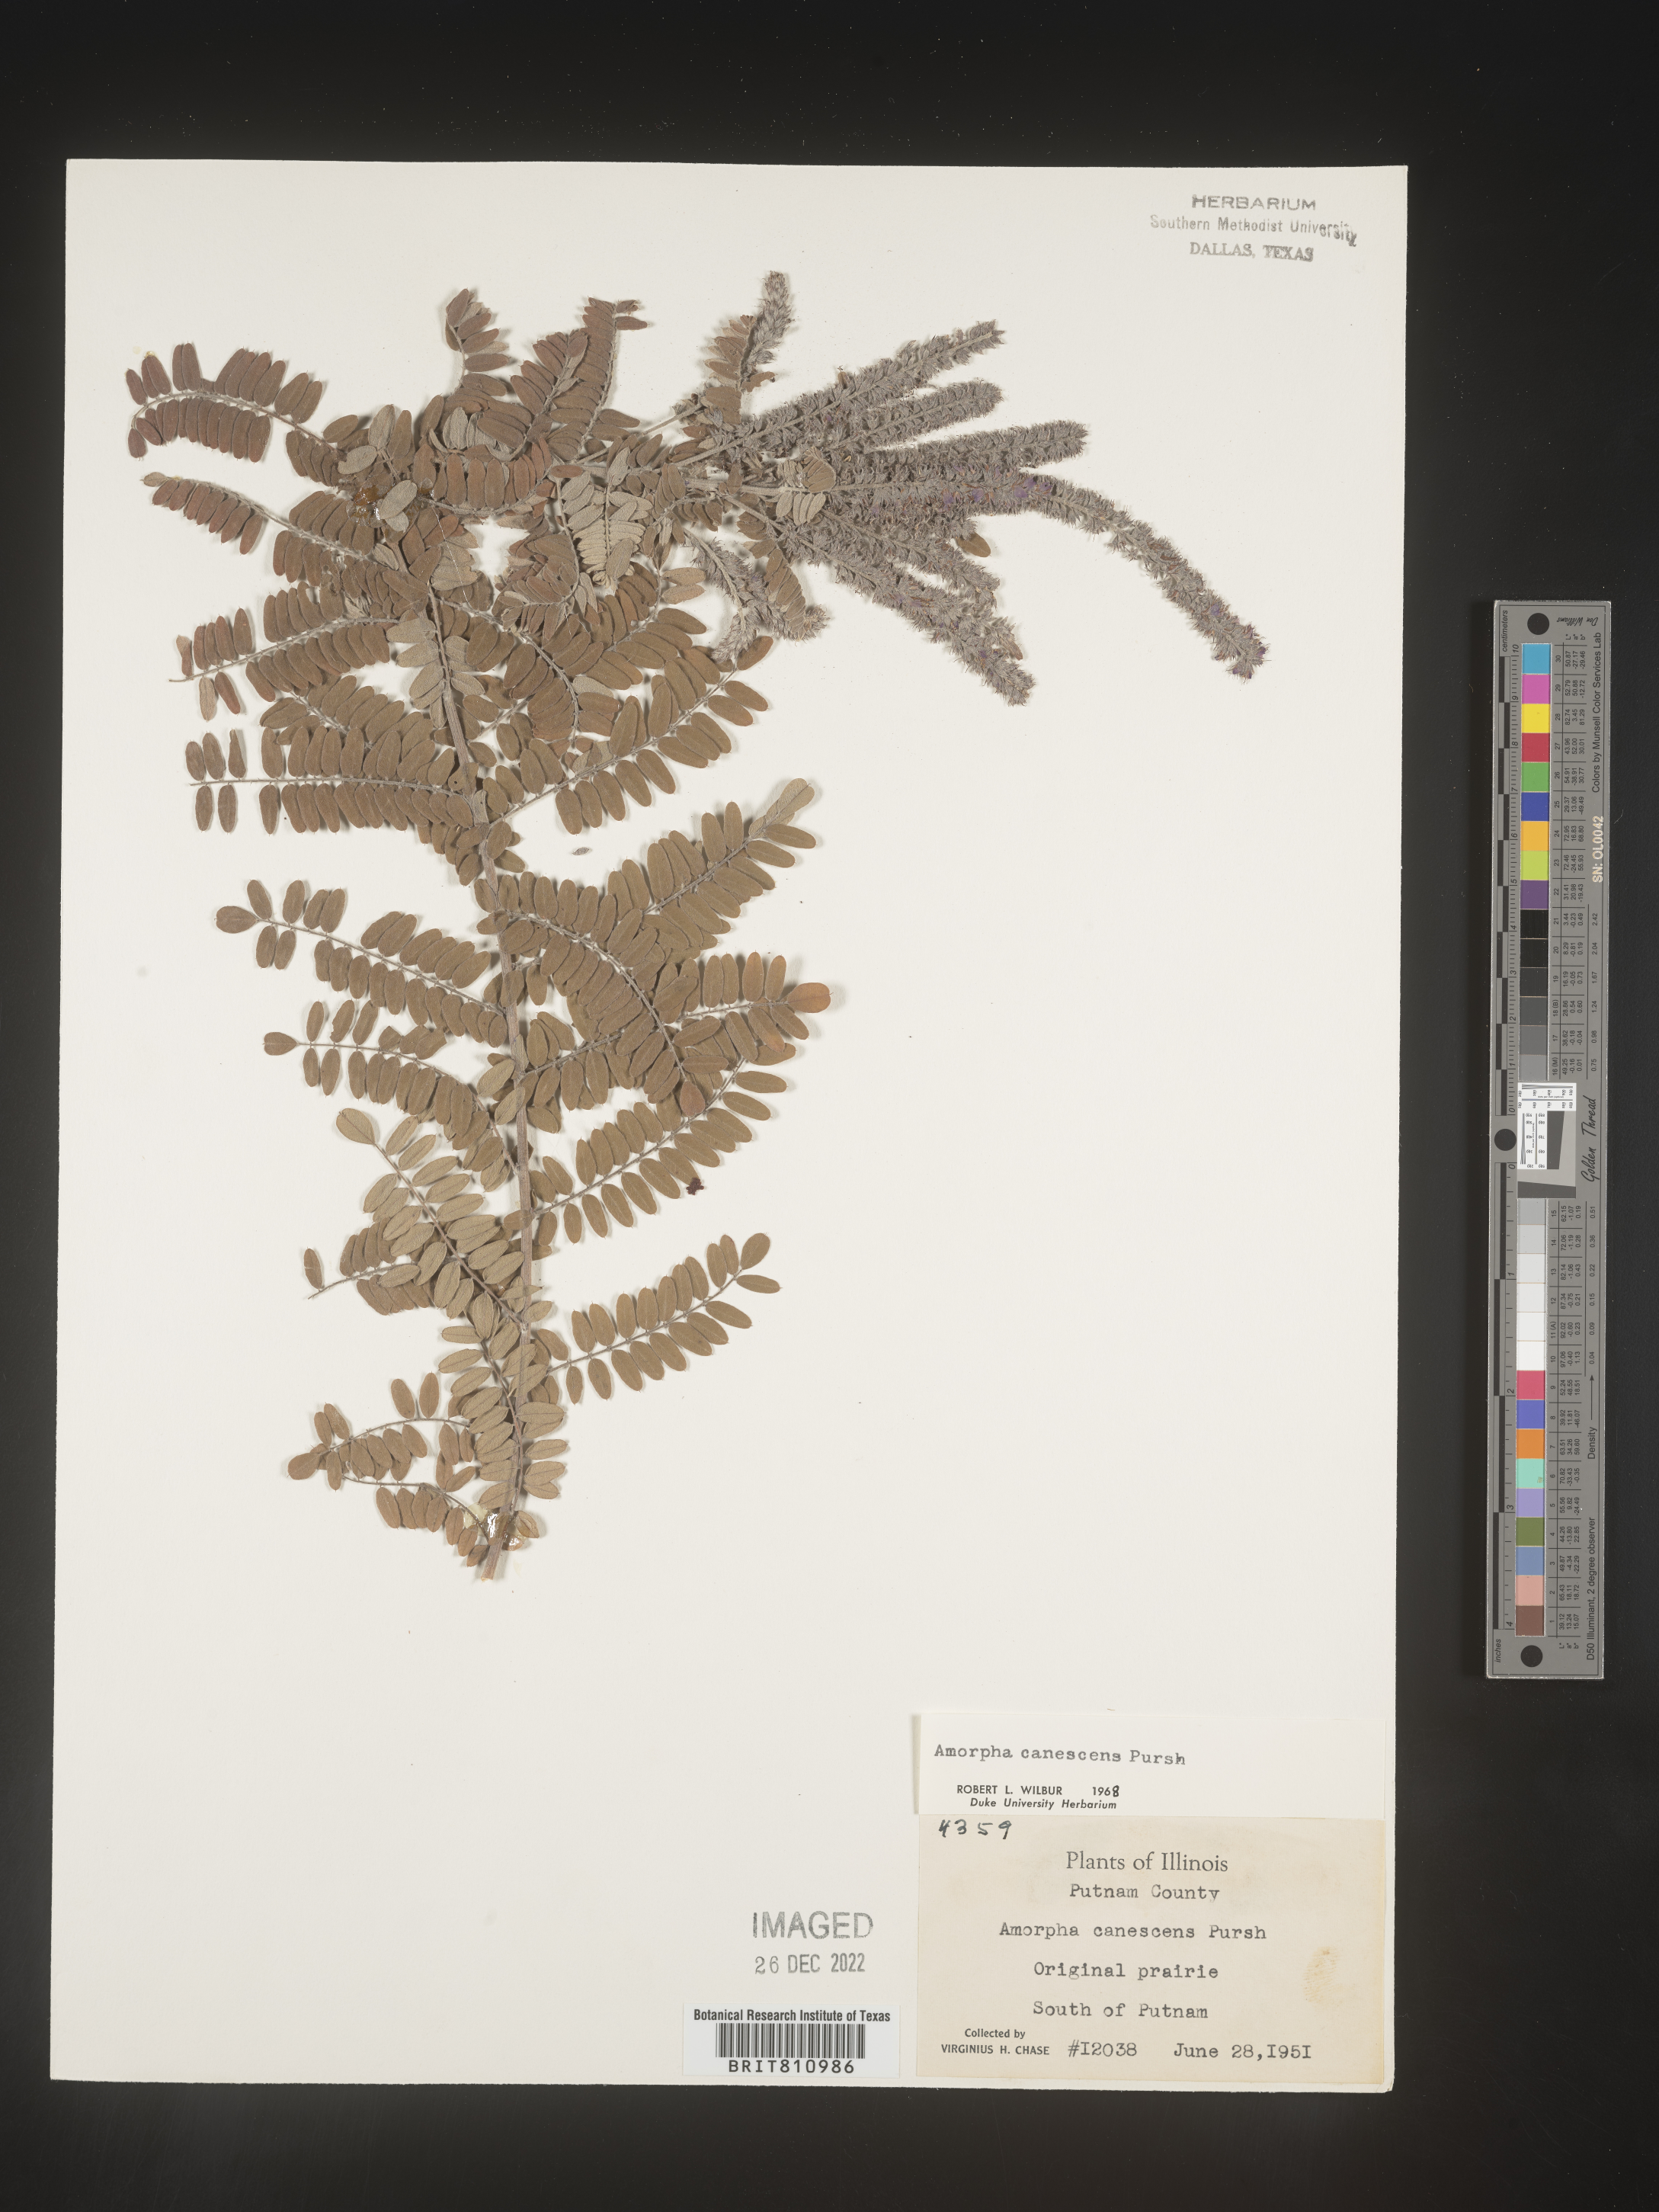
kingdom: Plantae
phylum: Tracheophyta
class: Magnoliopsida
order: Fabales
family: Fabaceae
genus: Amorpha
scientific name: Amorpha canescens
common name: Leadplant
